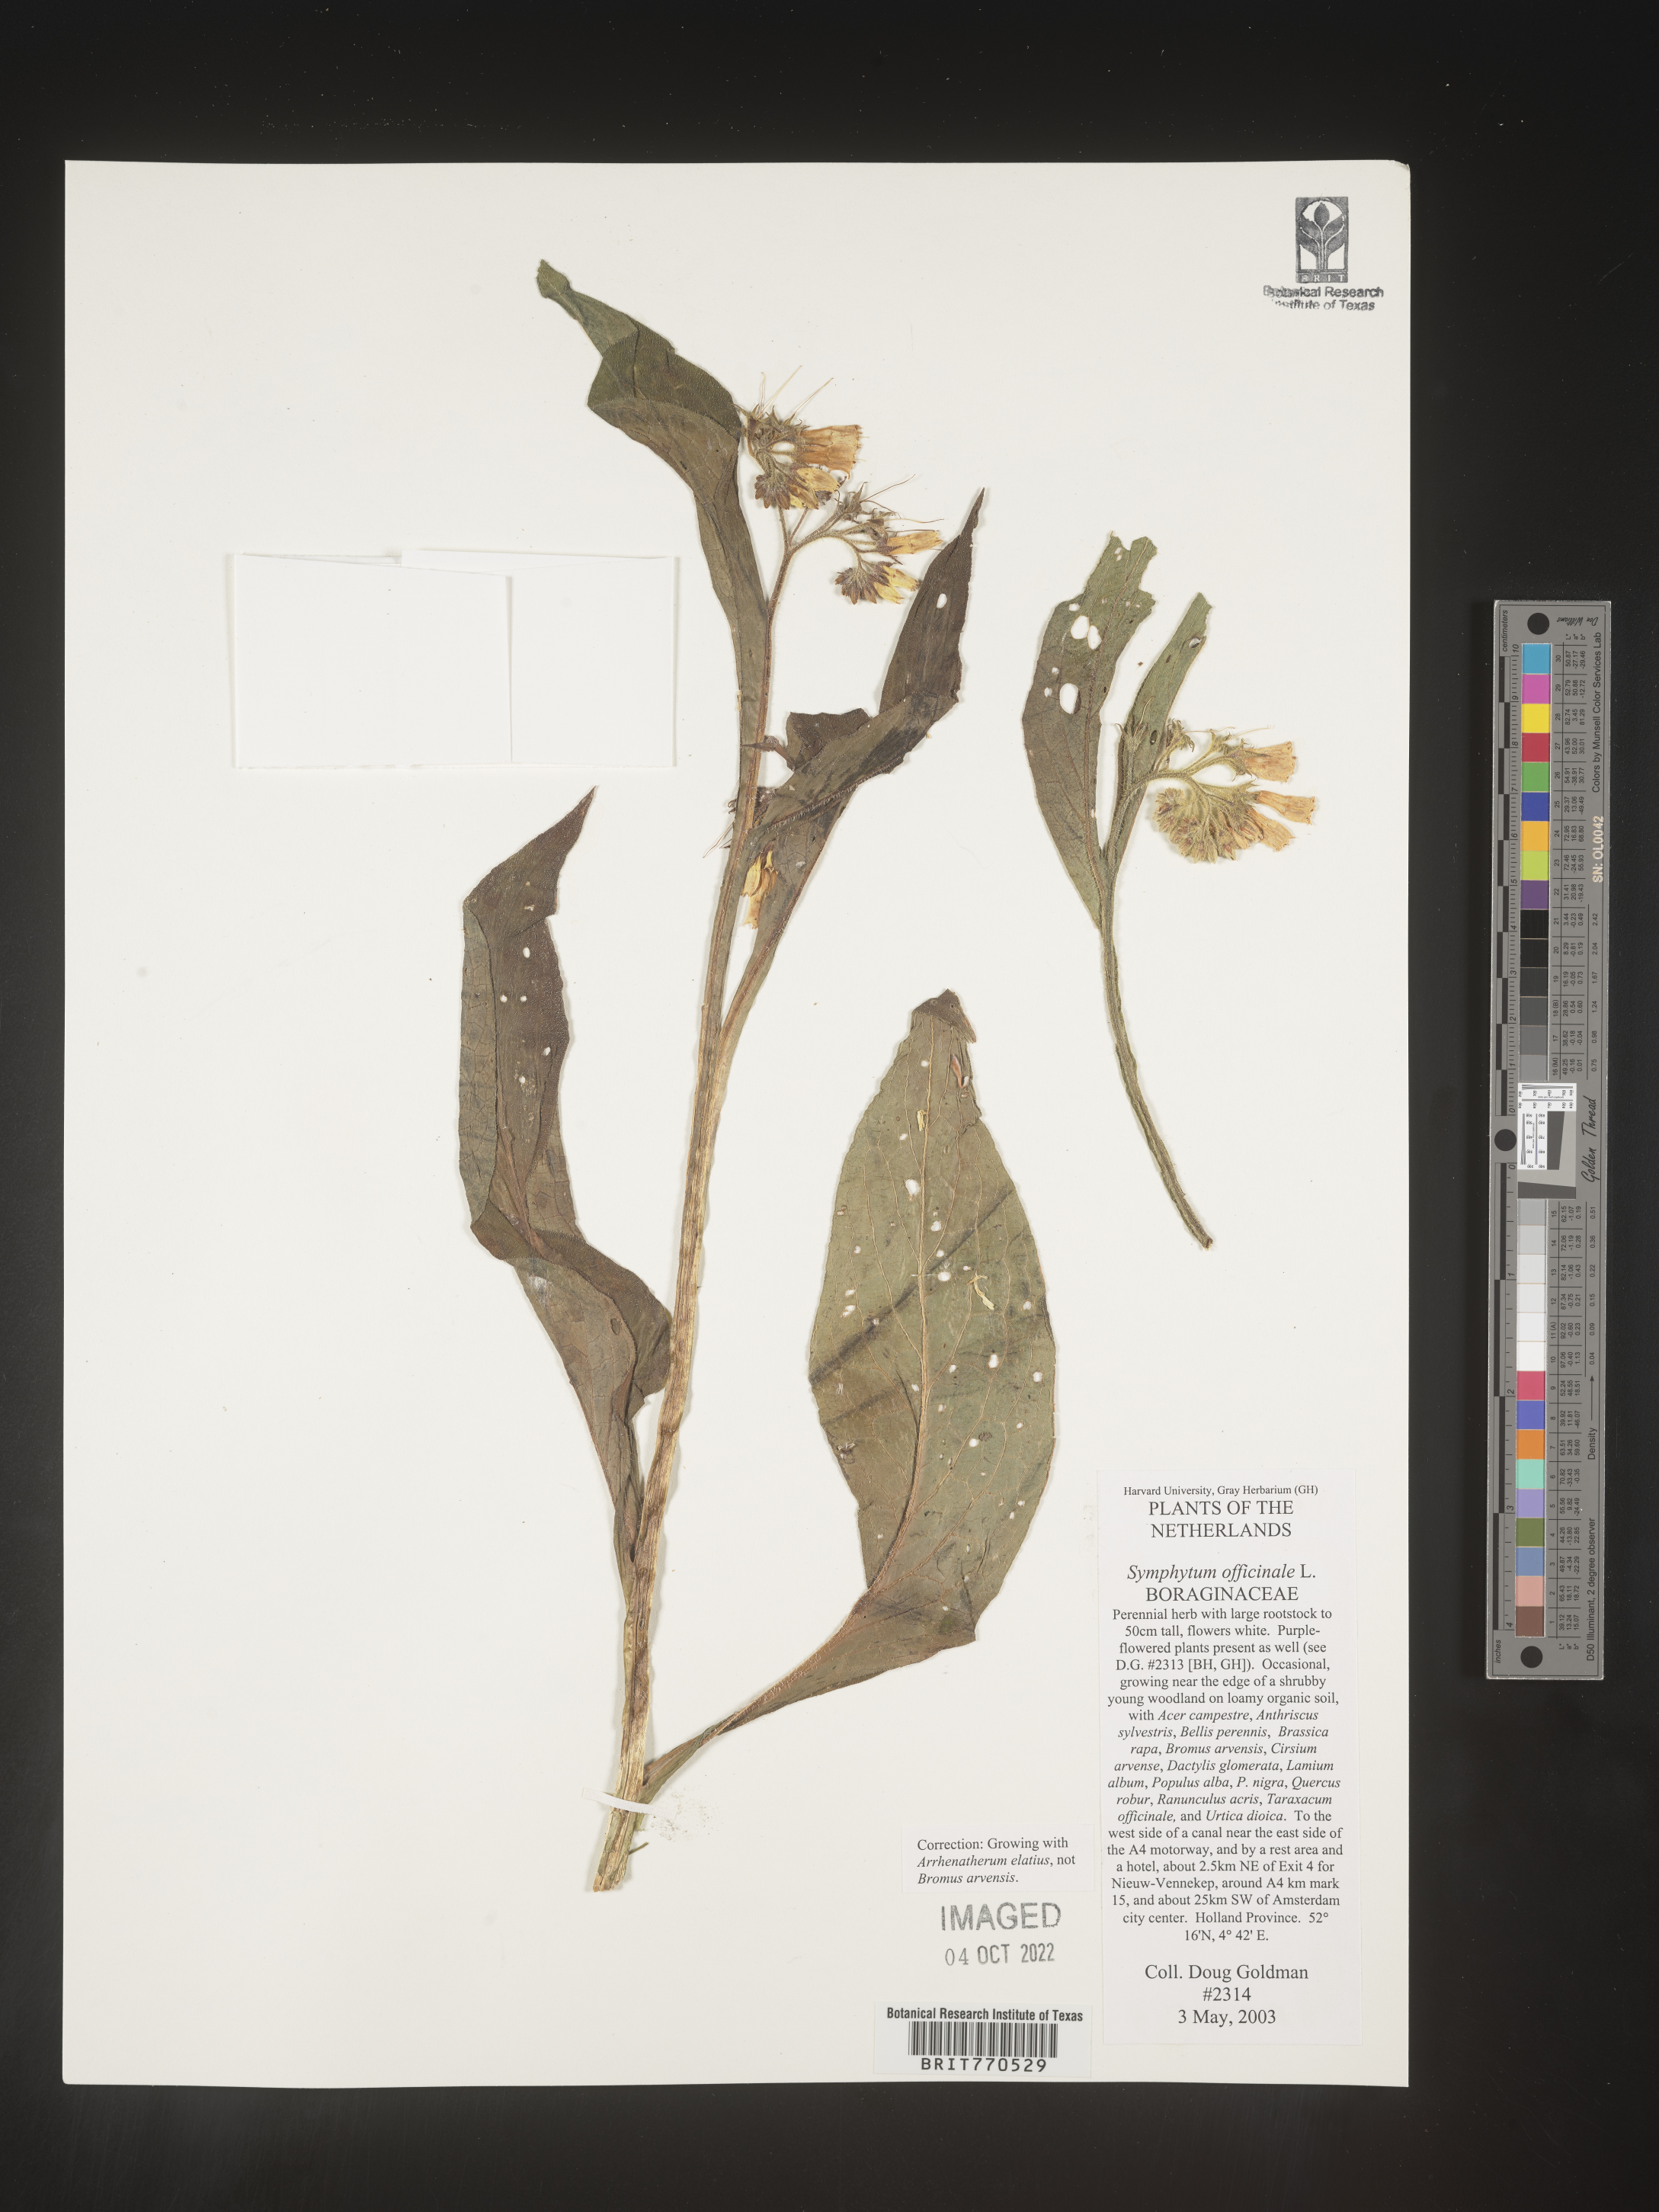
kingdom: Plantae
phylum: Tracheophyta
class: Magnoliopsida
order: Boraginales
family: Boraginaceae
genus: Symphytum
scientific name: Symphytum
